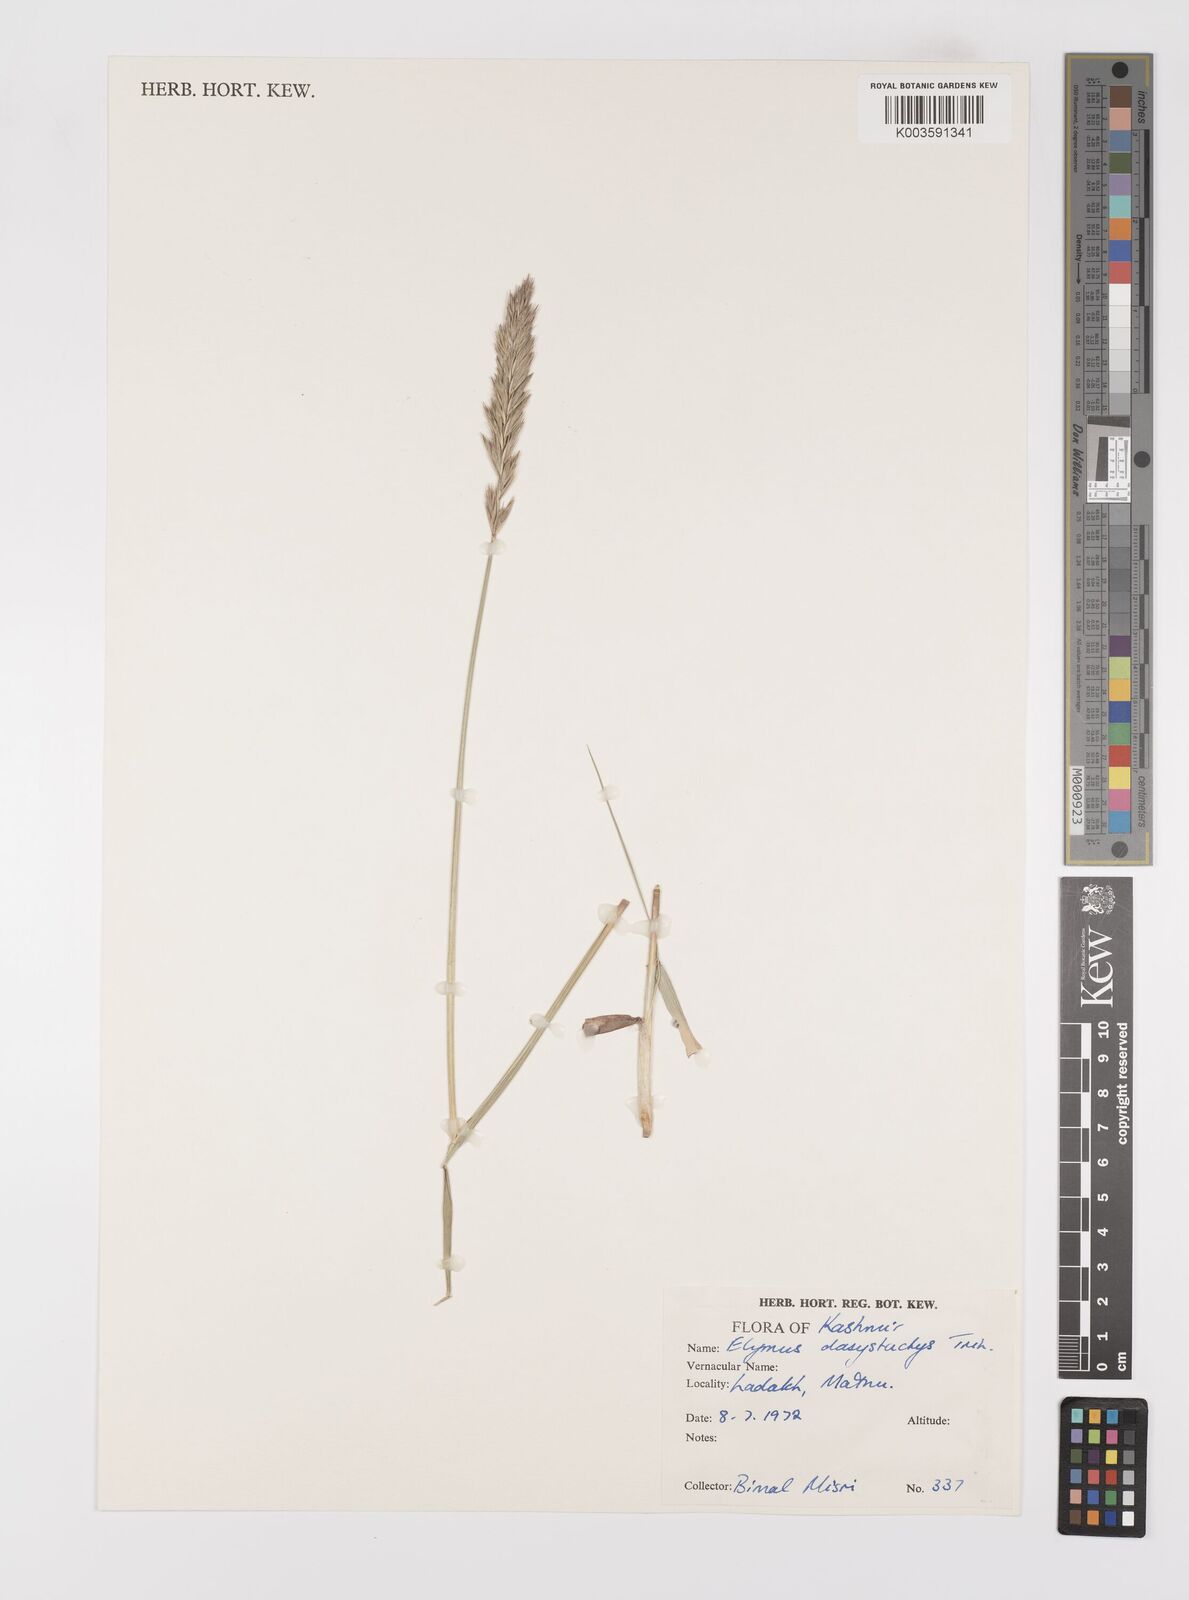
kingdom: Plantae
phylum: Tracheophyta
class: Liliopsida
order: Poales
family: Poaceae
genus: Leymus
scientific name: Leymus secalinus
